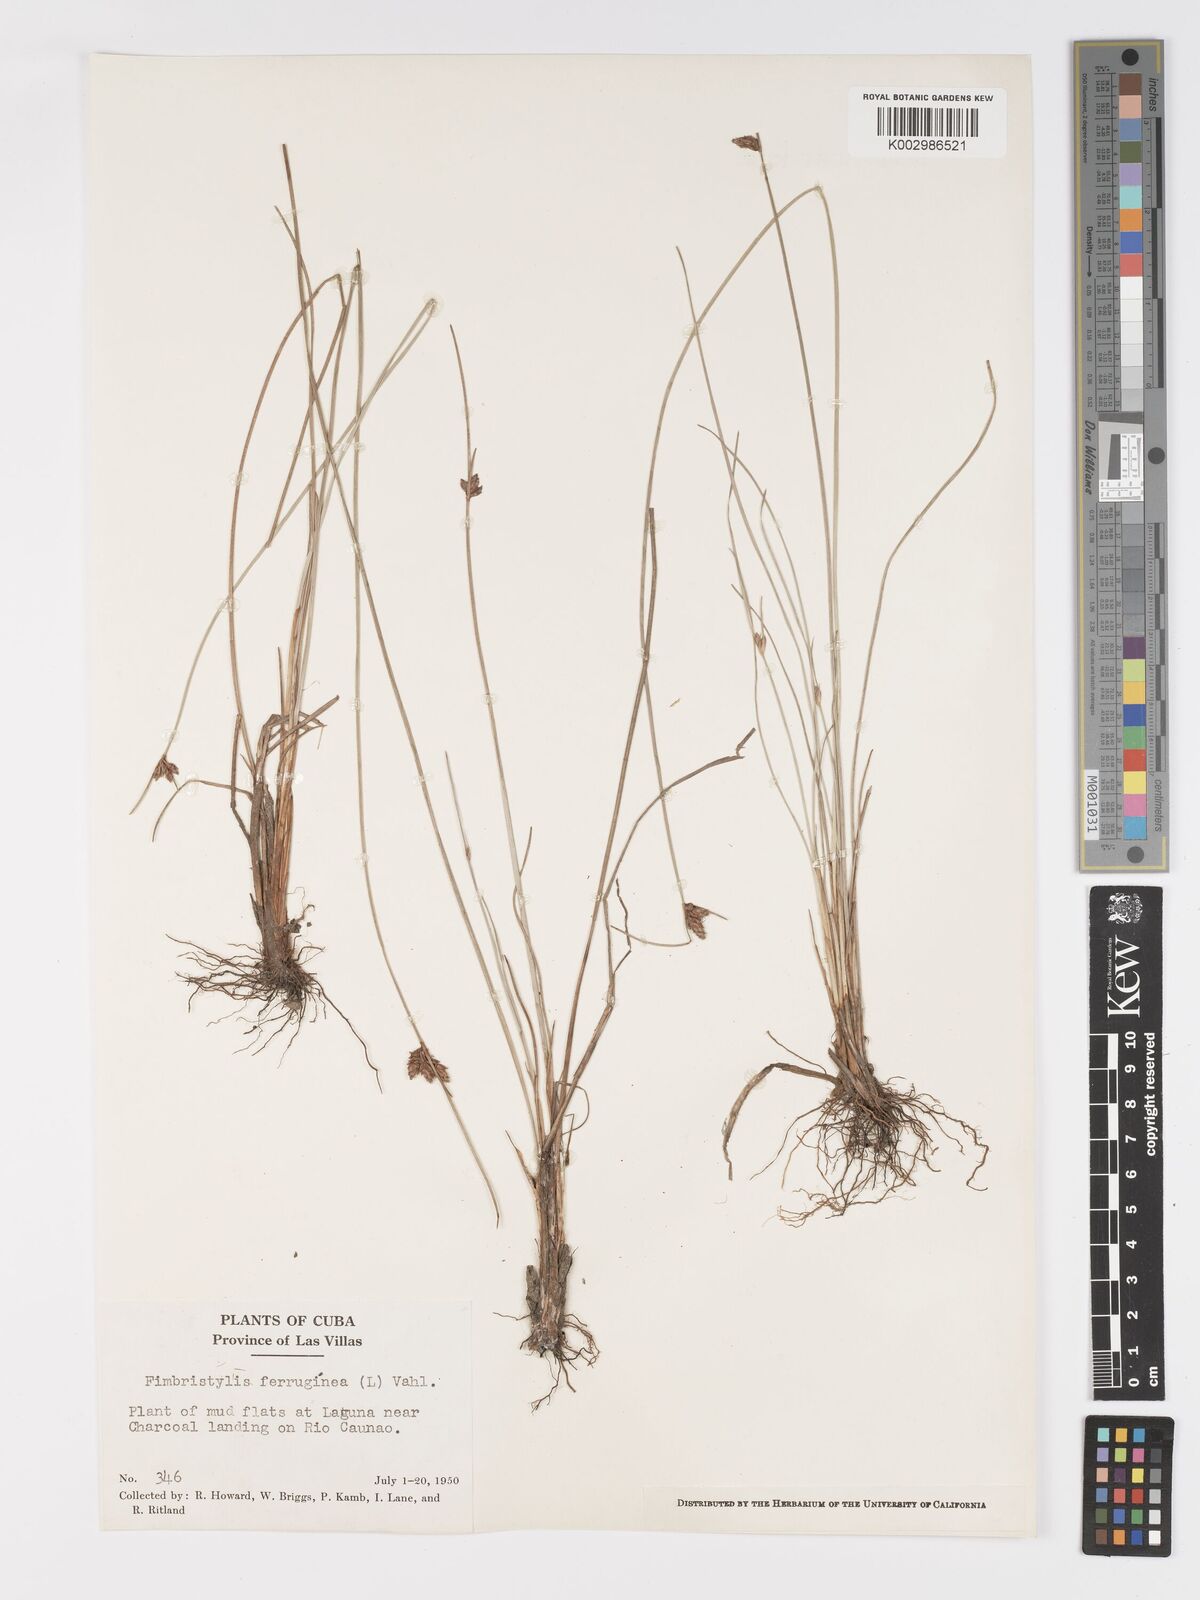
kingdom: Plantae
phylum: Tracheophyta
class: Liliopsida
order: Poales
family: Cyperaceae
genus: Fimbristylis
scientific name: Fimbristylis ferruginea
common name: West indian fimbry
